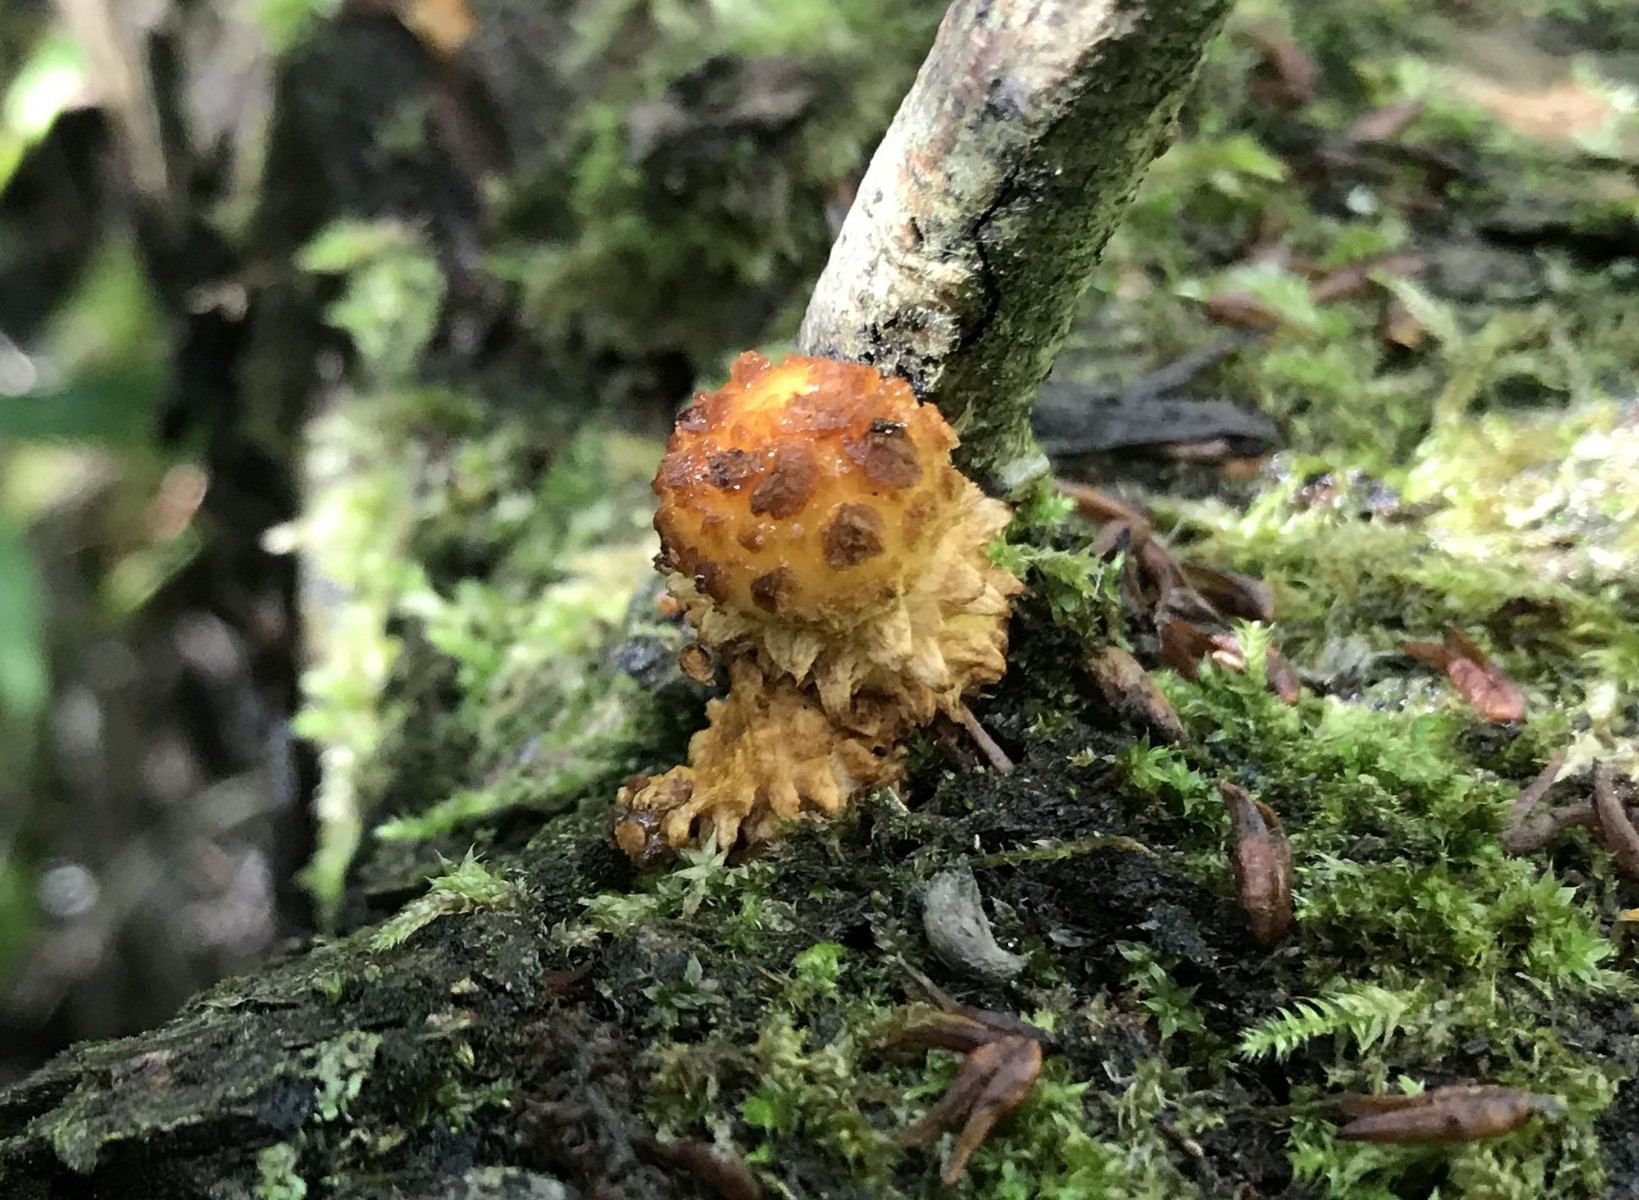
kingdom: Fungi
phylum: Basidiomycota
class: Agaricomycetes
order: Agaricales
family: Strophariaceae
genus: Pholiota
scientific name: Pholiota aurivella
